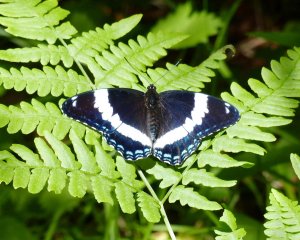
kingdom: Animalia
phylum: Arthropoda
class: Insecta
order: Lepidoptera
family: Nymphalidae
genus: Limenitis
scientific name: Limenitis arthemis
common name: Red-spotted Admiral
